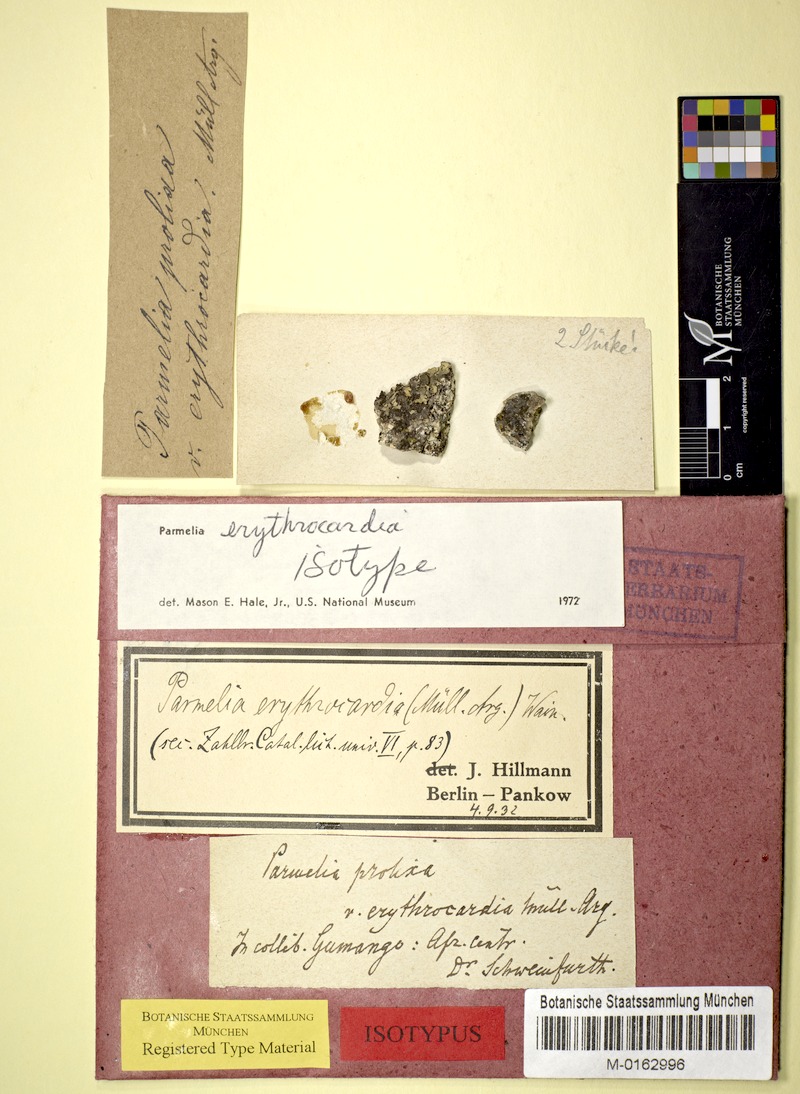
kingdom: Fungi
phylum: Ascomycota
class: Lecanoromycetes
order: Lecanorales
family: Parmeliaceae
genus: Xanthoparmelia
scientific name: Xanthoparmelia erythrocardia
